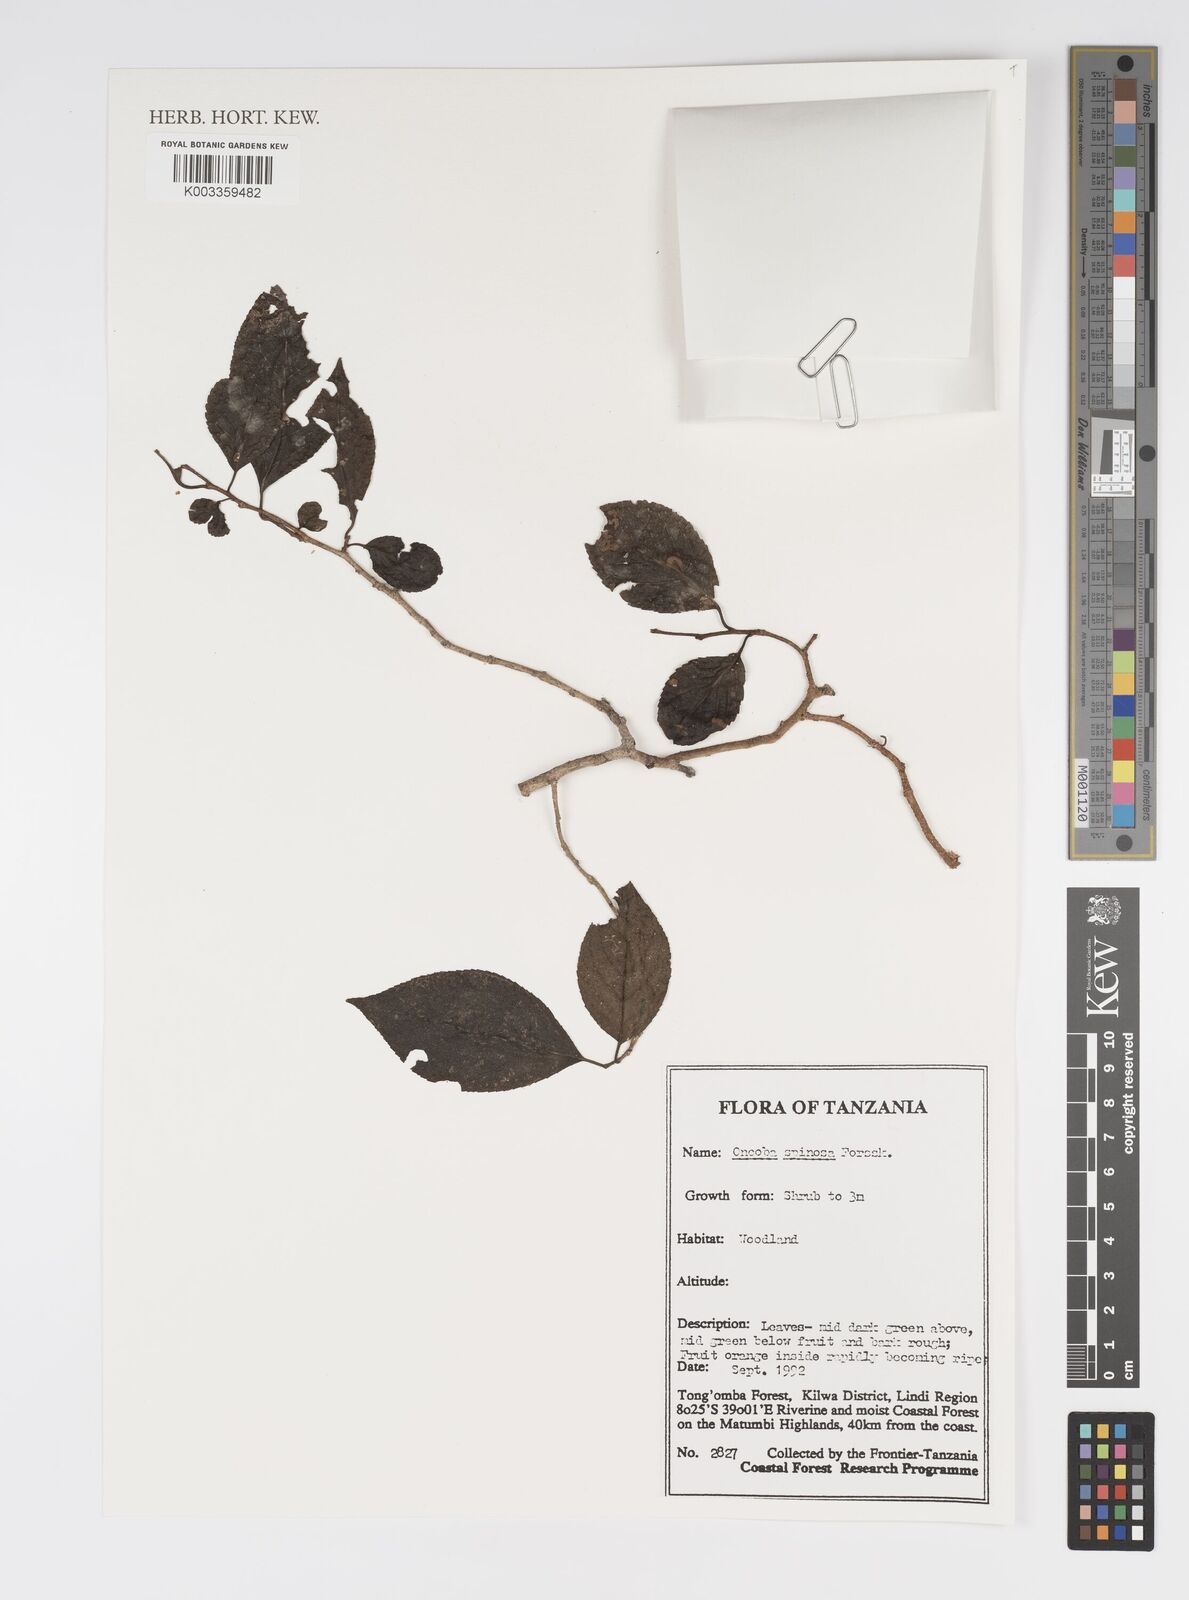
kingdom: Plantae
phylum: Tracheophyta
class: Magnoliopsida
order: Malpighiales
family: Salicaceae
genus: Oncoba
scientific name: Oncoba spinosa
